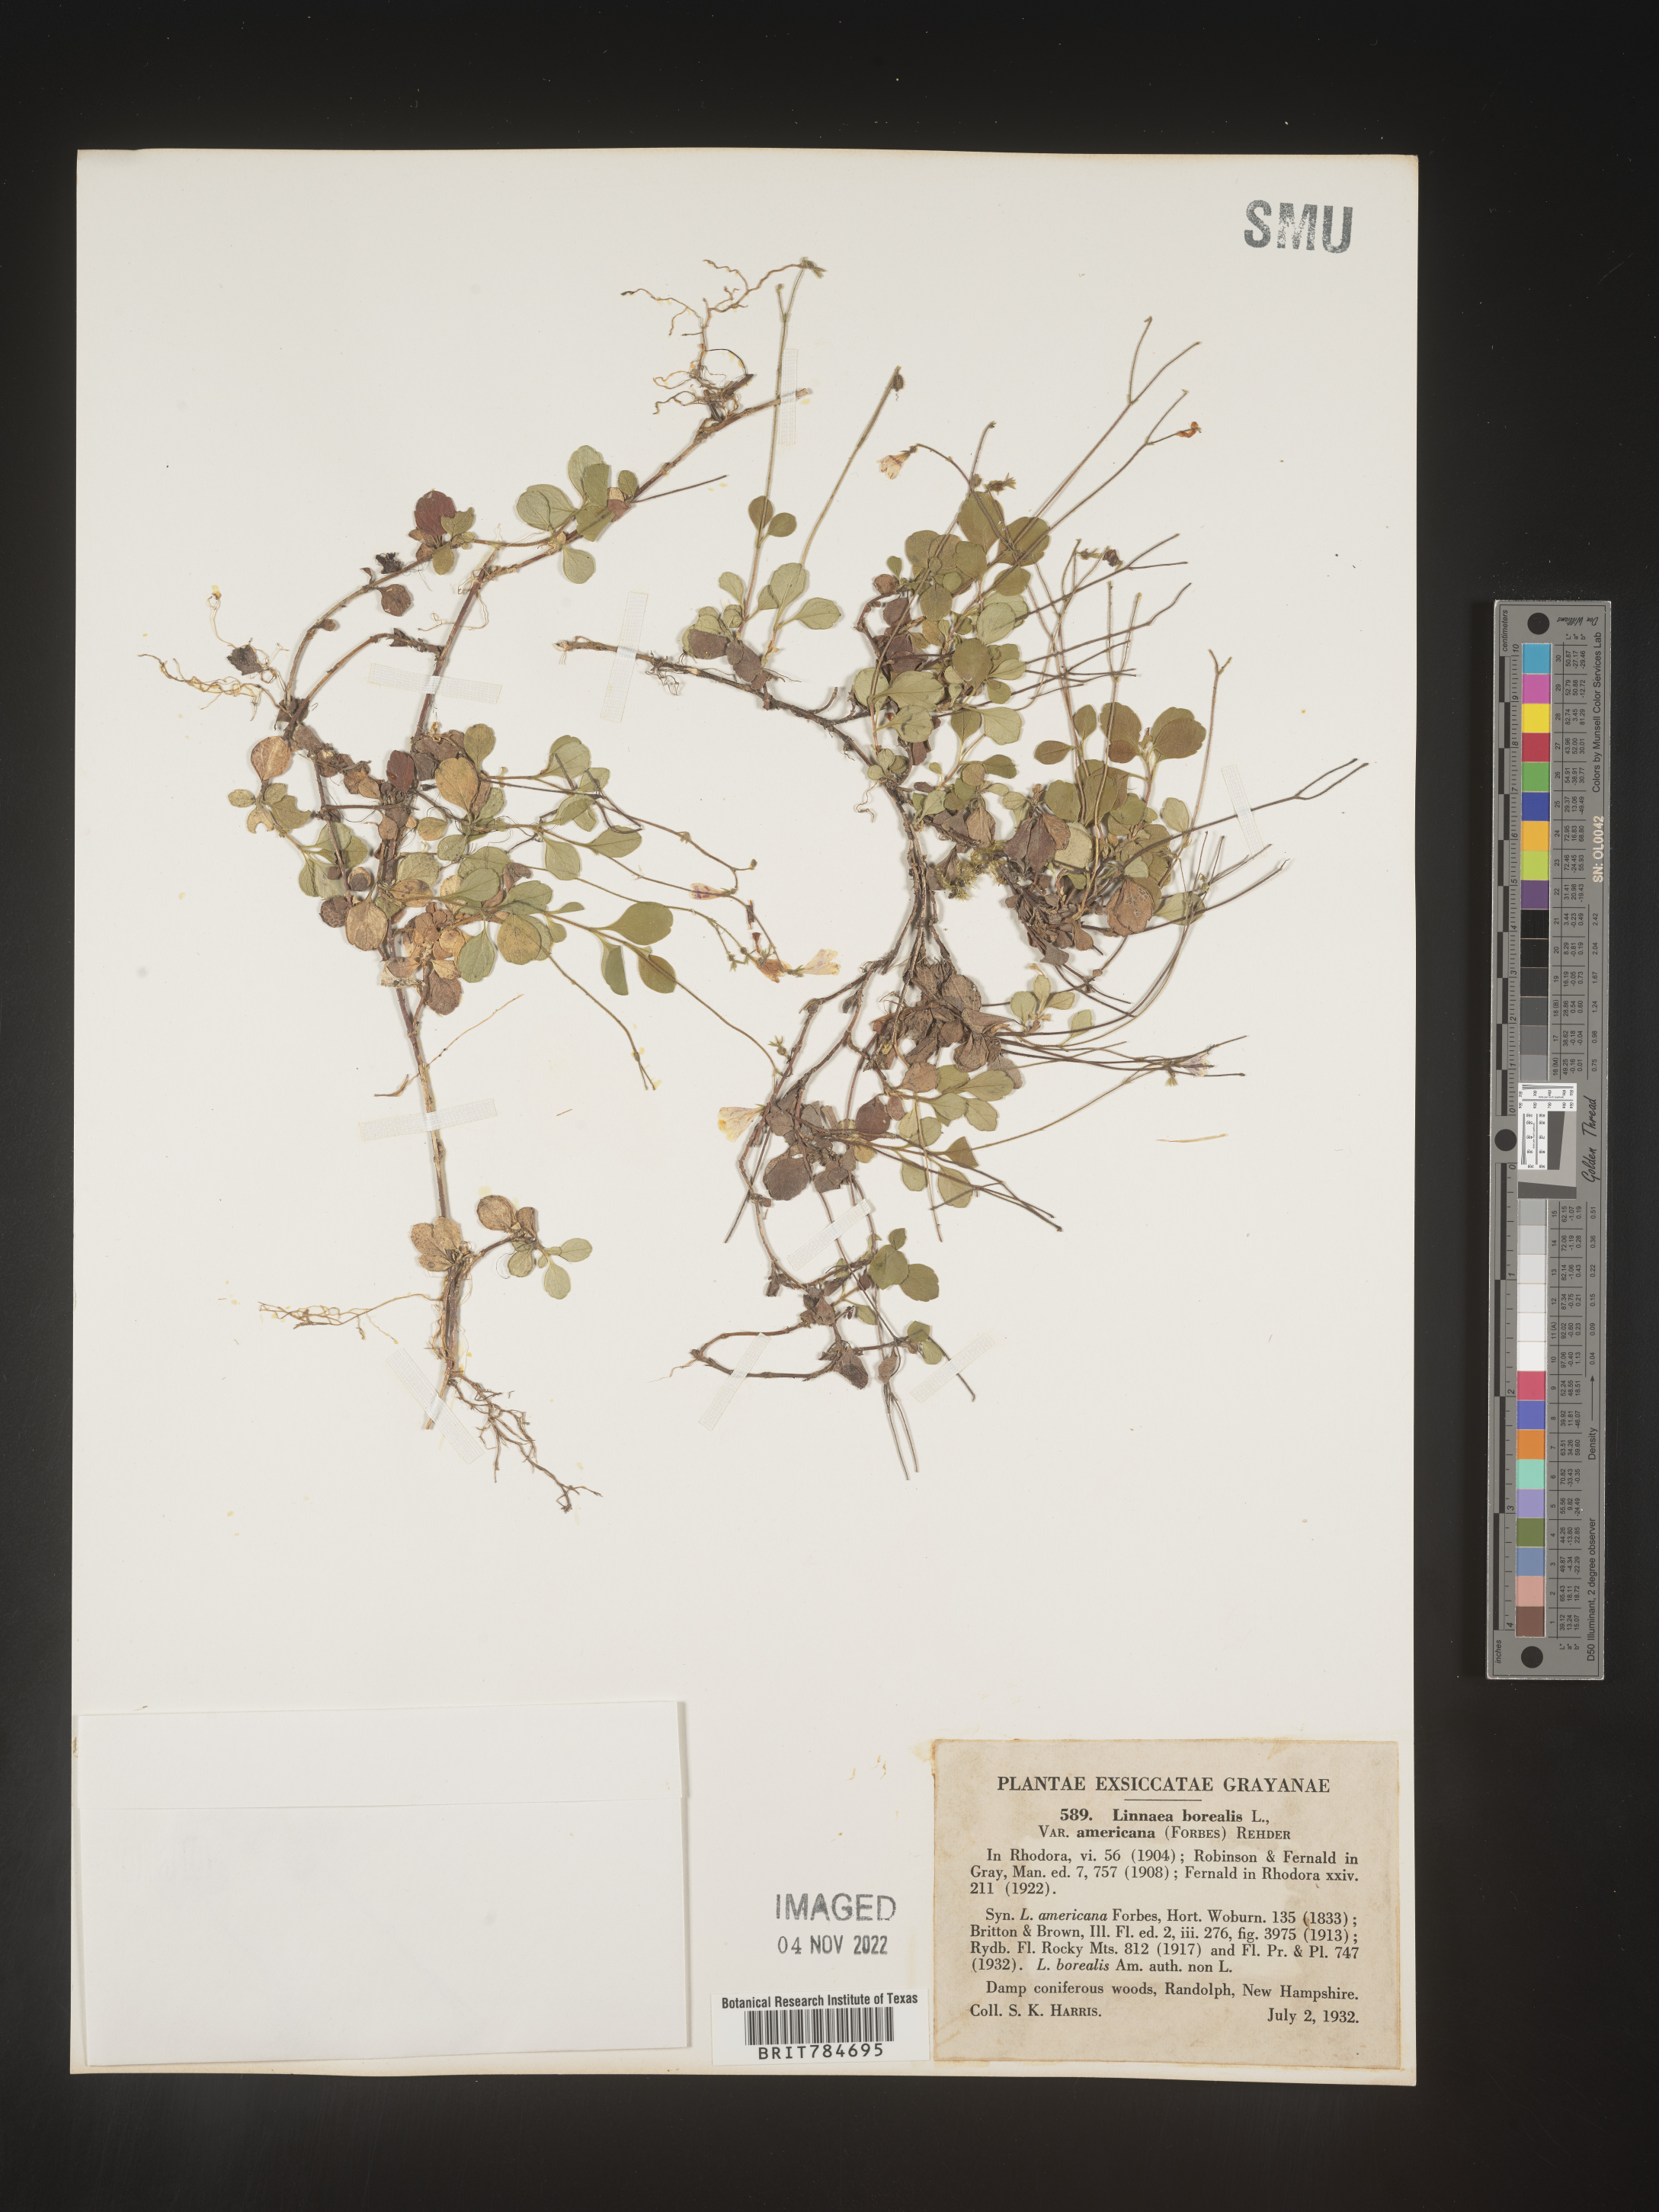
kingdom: Plantae
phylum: Tracheophyta
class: Magnoliopsida
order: Dipsacales
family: Caprifoliaceae
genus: Linnaea
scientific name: Linnaea borealis
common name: Twinflower
